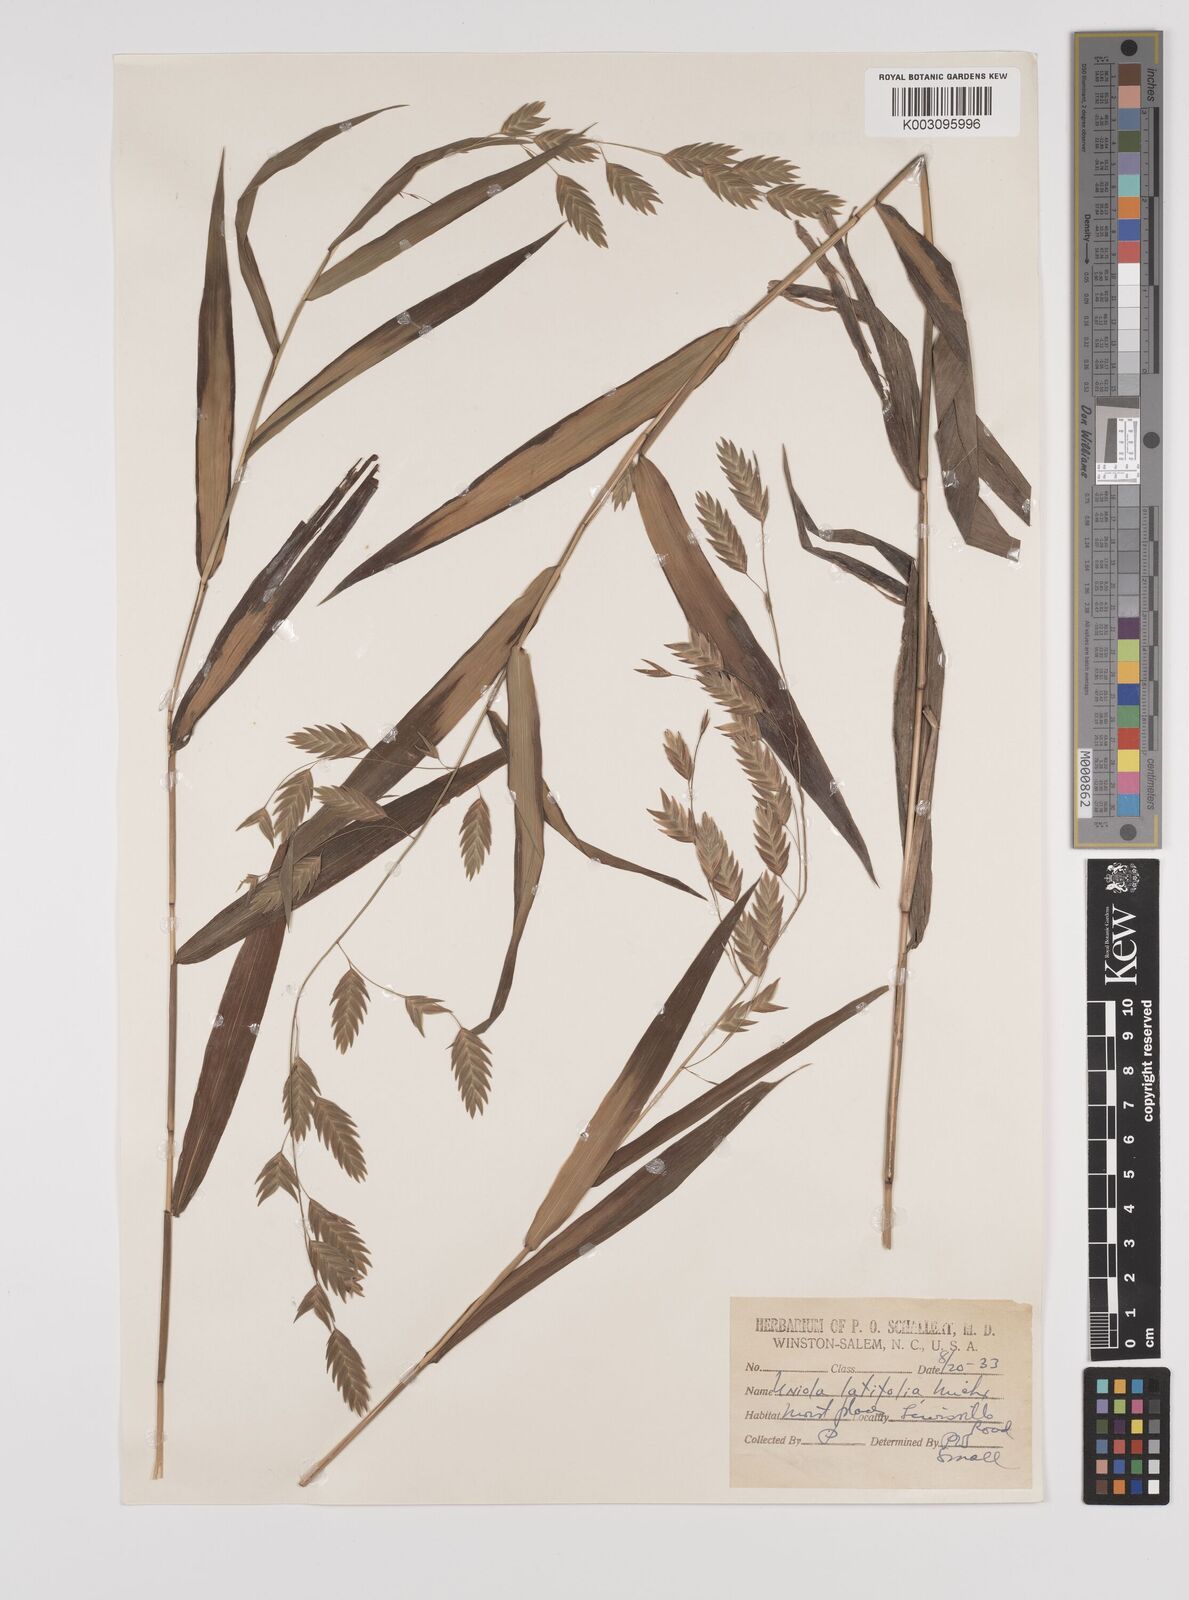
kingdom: Plantae
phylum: Tracheophyta
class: Liliopsida
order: Poales
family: Poaceae
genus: Chasmanthium
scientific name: Chasmanthium latifolium
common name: Broad-leaved chasmanthium
